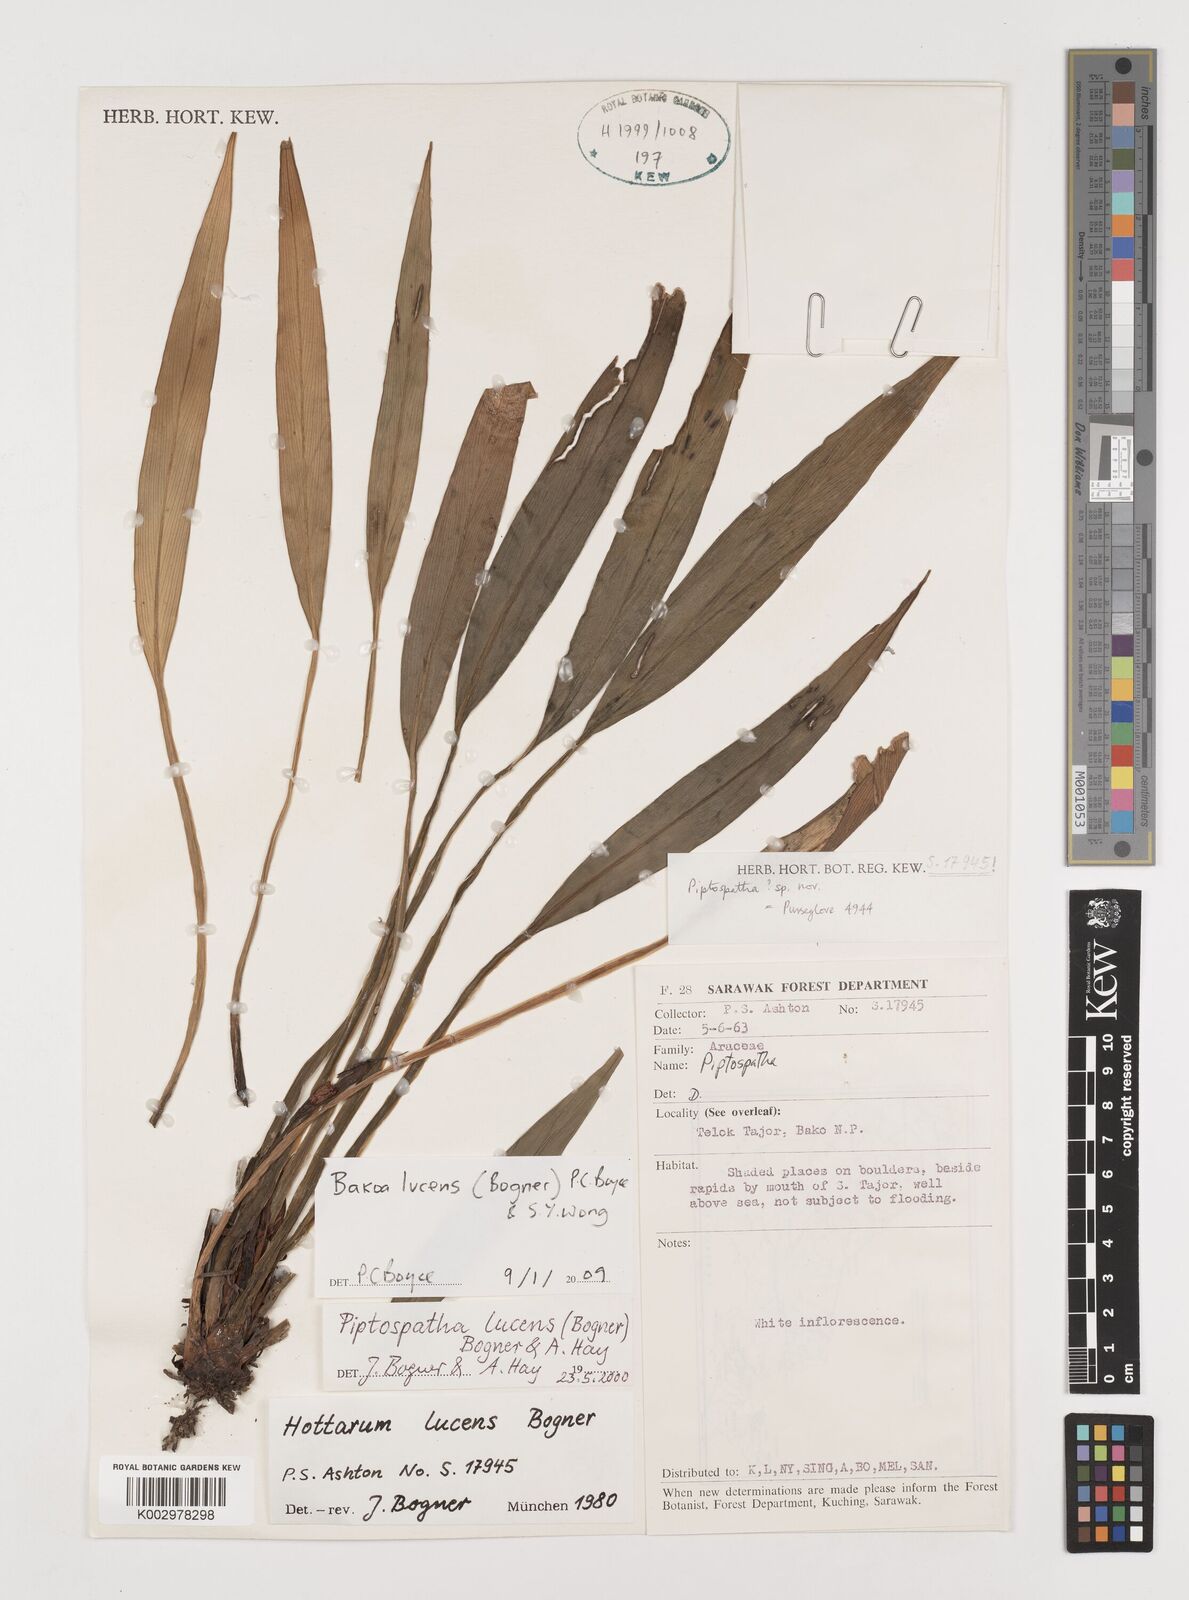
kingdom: Plantae
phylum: Tracheophyta
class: Liliopsida
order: Alismatales
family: Araceae
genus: Bakoa
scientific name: Bakoa lucens
